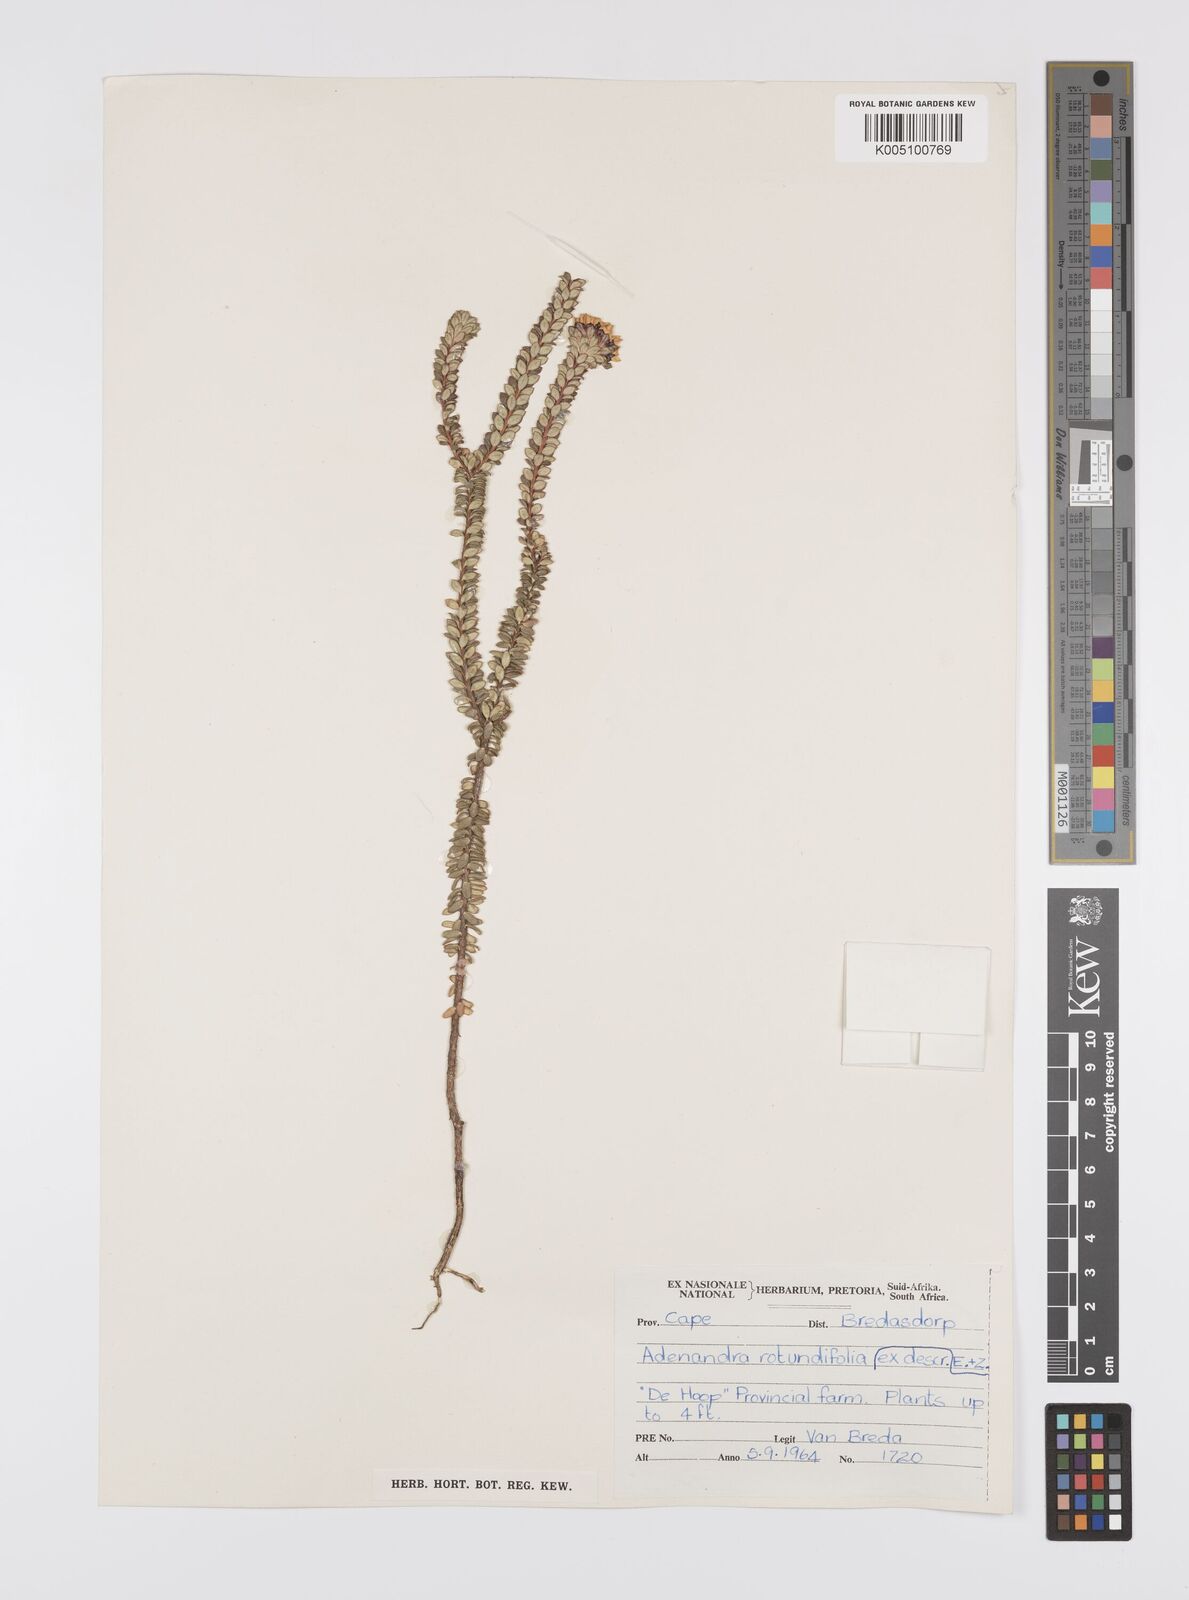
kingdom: Plantae
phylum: Tracheophyta
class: Magnoliopsida
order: Sapindales
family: Rutaceae
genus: Adenandra
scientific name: Adenandra rotundifolia
